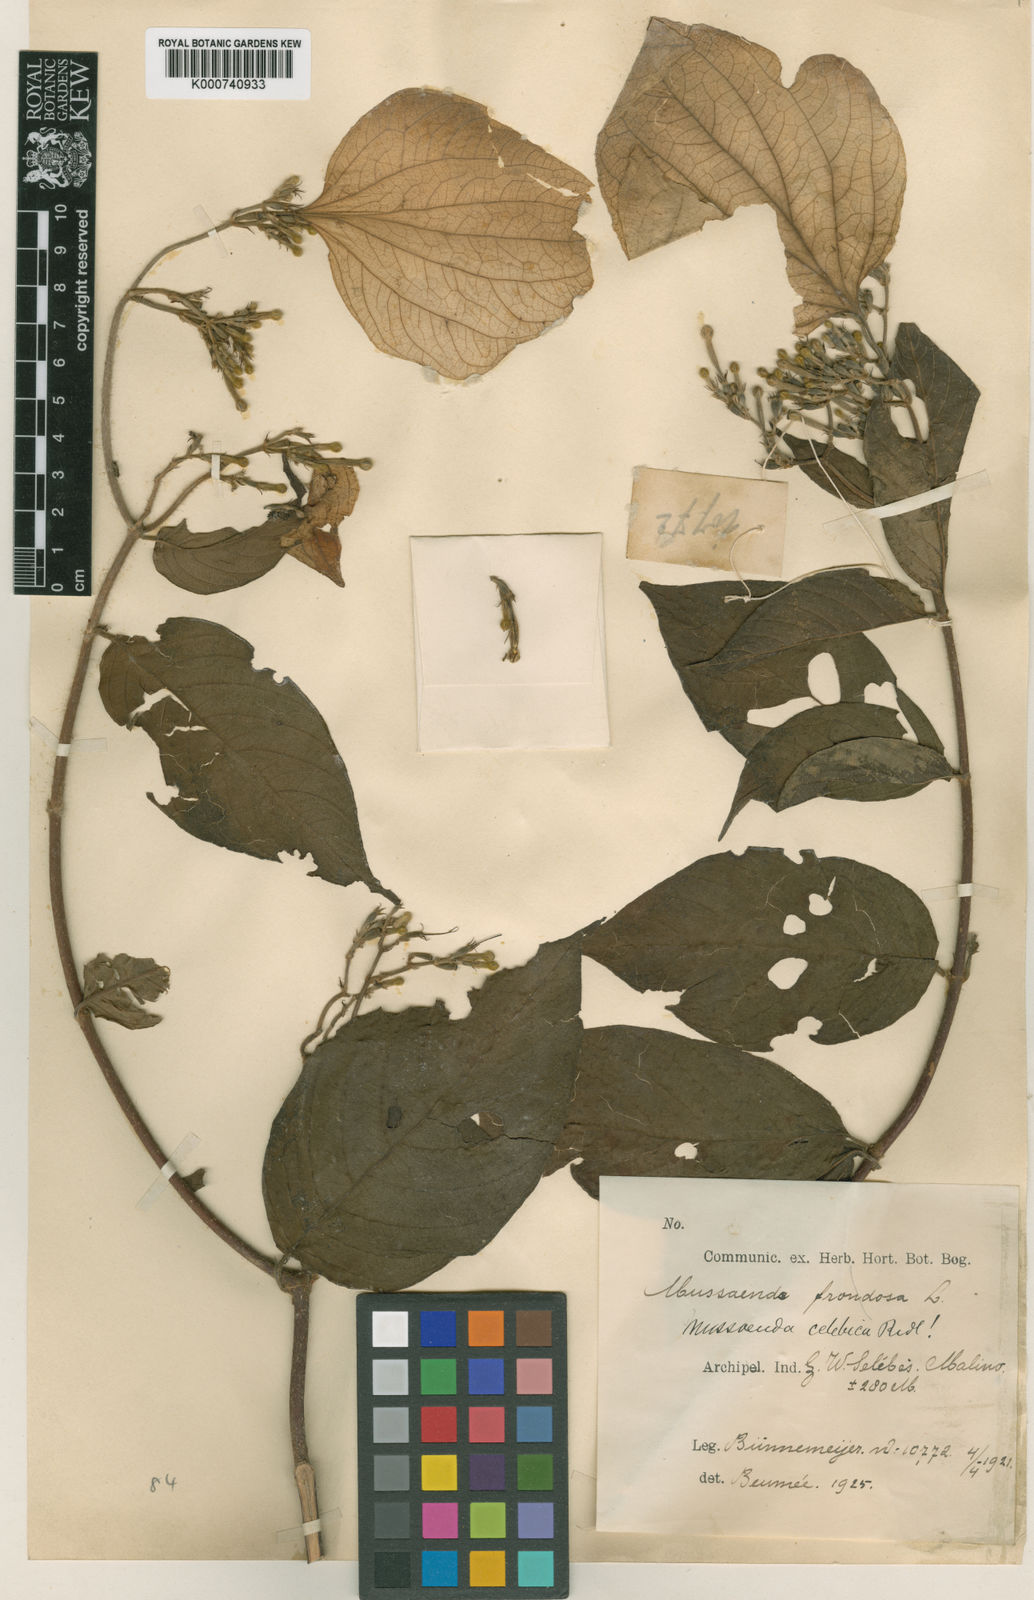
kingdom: Plantae
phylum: Tracheophyta
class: Magnoliopsida
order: Gentianales
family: Rubiaceae
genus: Mussaenda
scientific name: Mussaenda celebica
